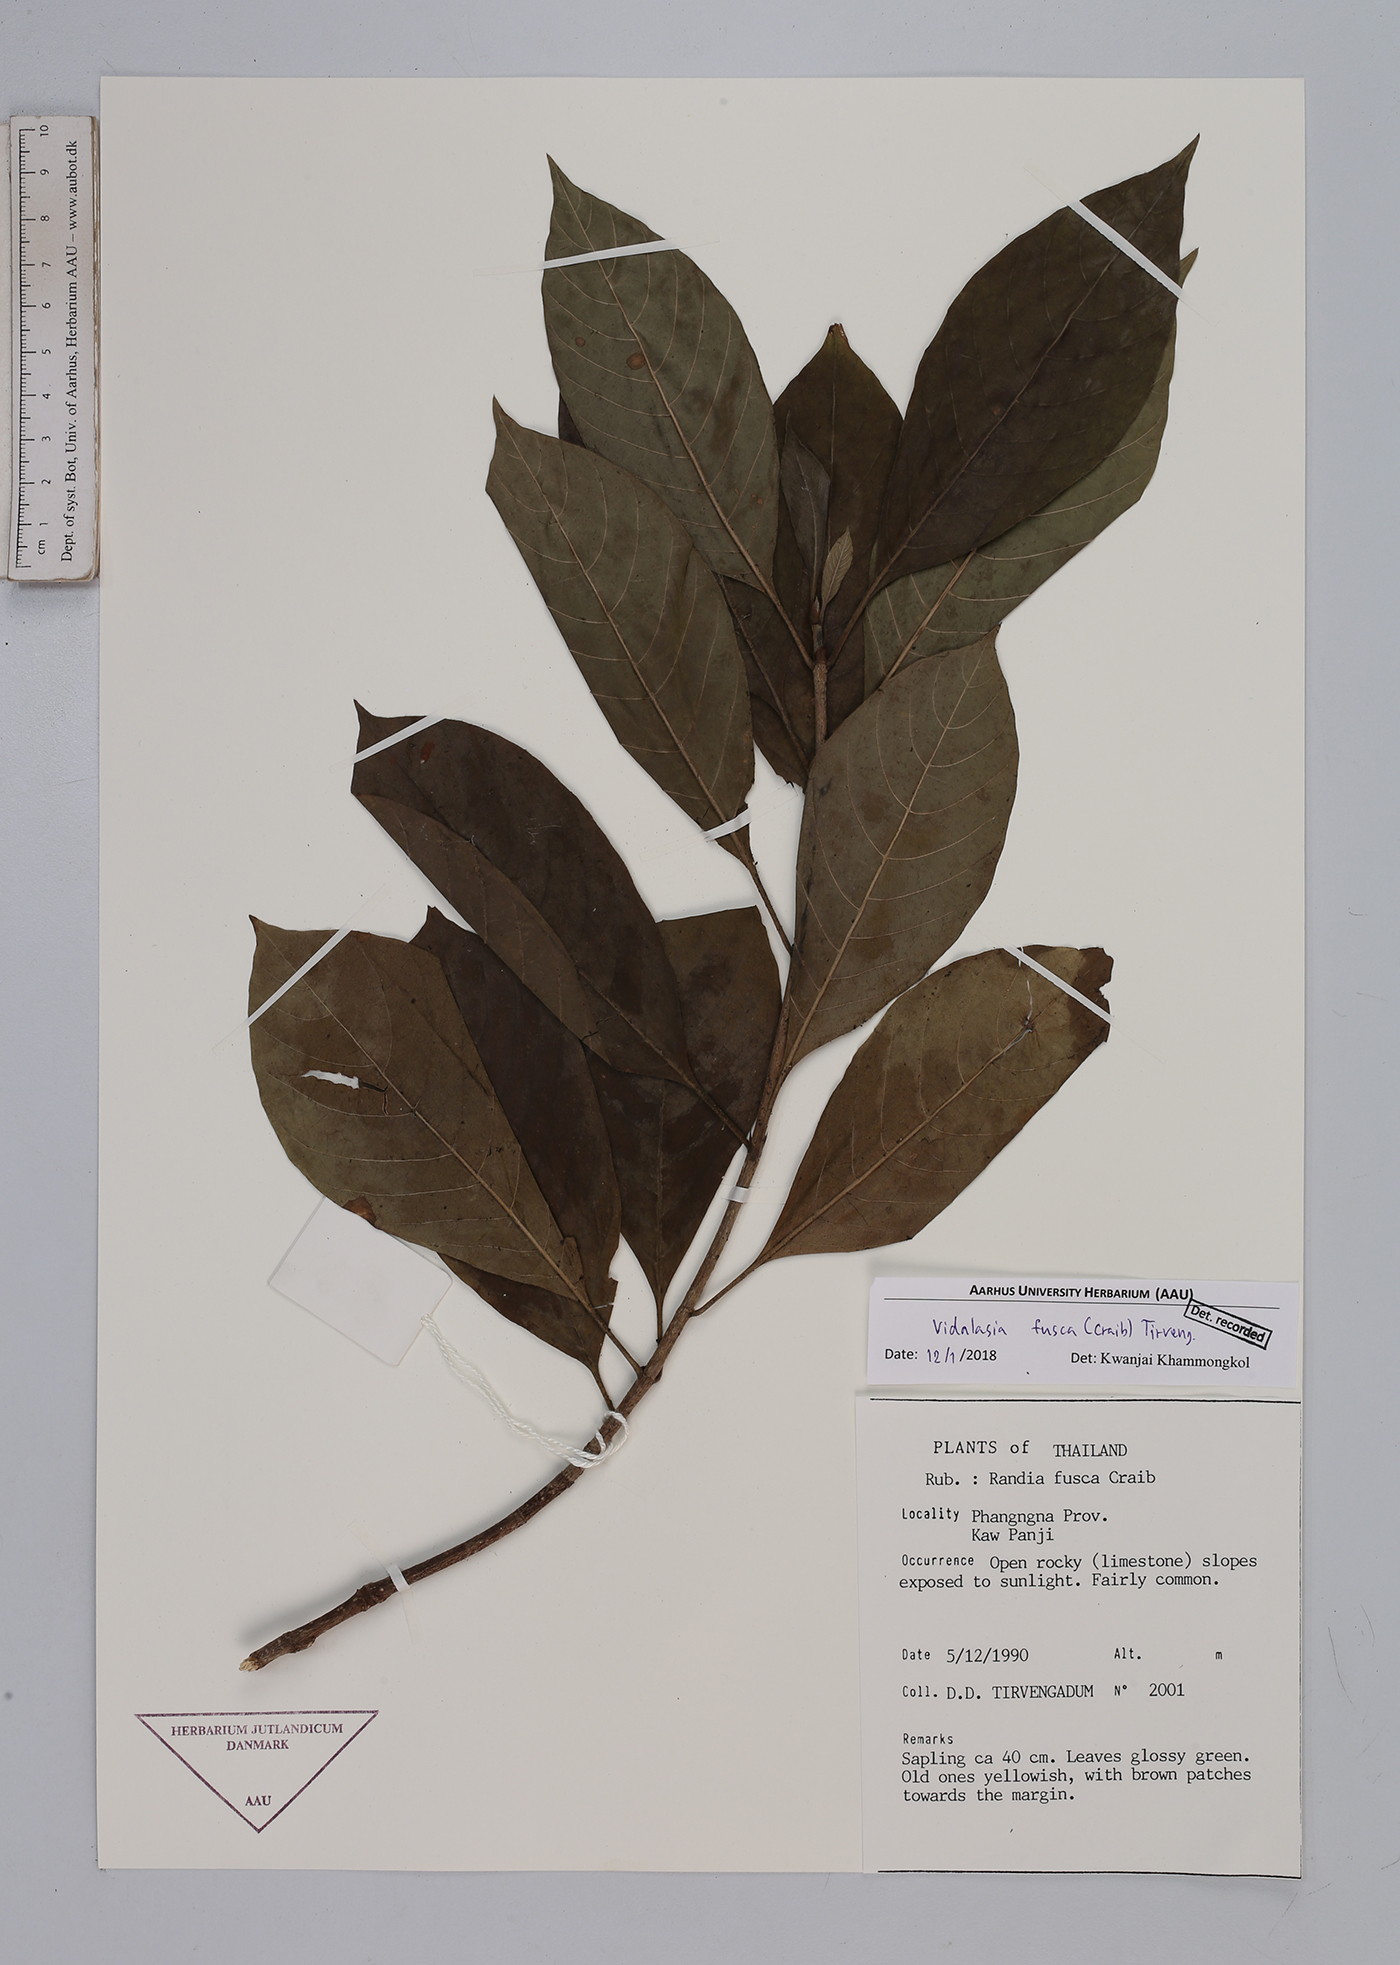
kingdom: Plantae
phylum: Tracheophyta
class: Magnoliopsida
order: Gentianales
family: Rubiaceae
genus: Vidalasia
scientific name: Vidalasia fusca
